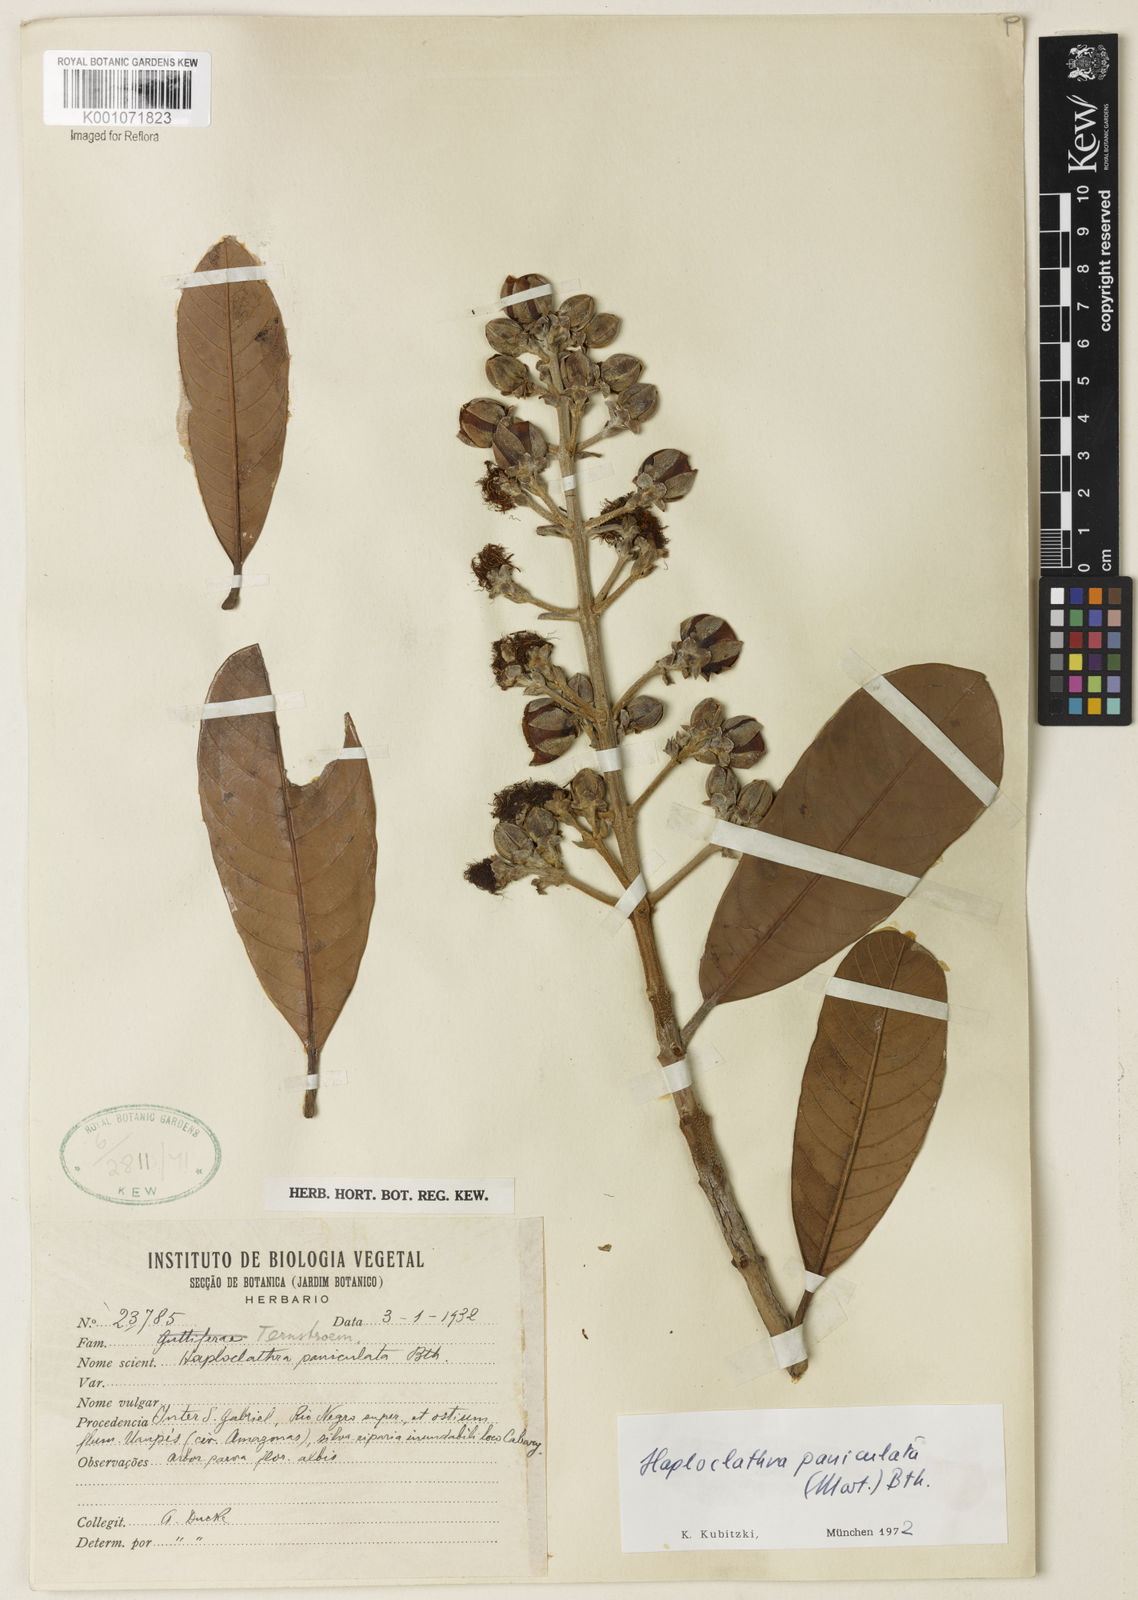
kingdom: Plantae
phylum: Tracheophyta
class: Magnoliopsida
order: Malpighiales
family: Calophyllaceae
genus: Haploclathra
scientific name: Haploclathra paniculata
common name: Red-wood
